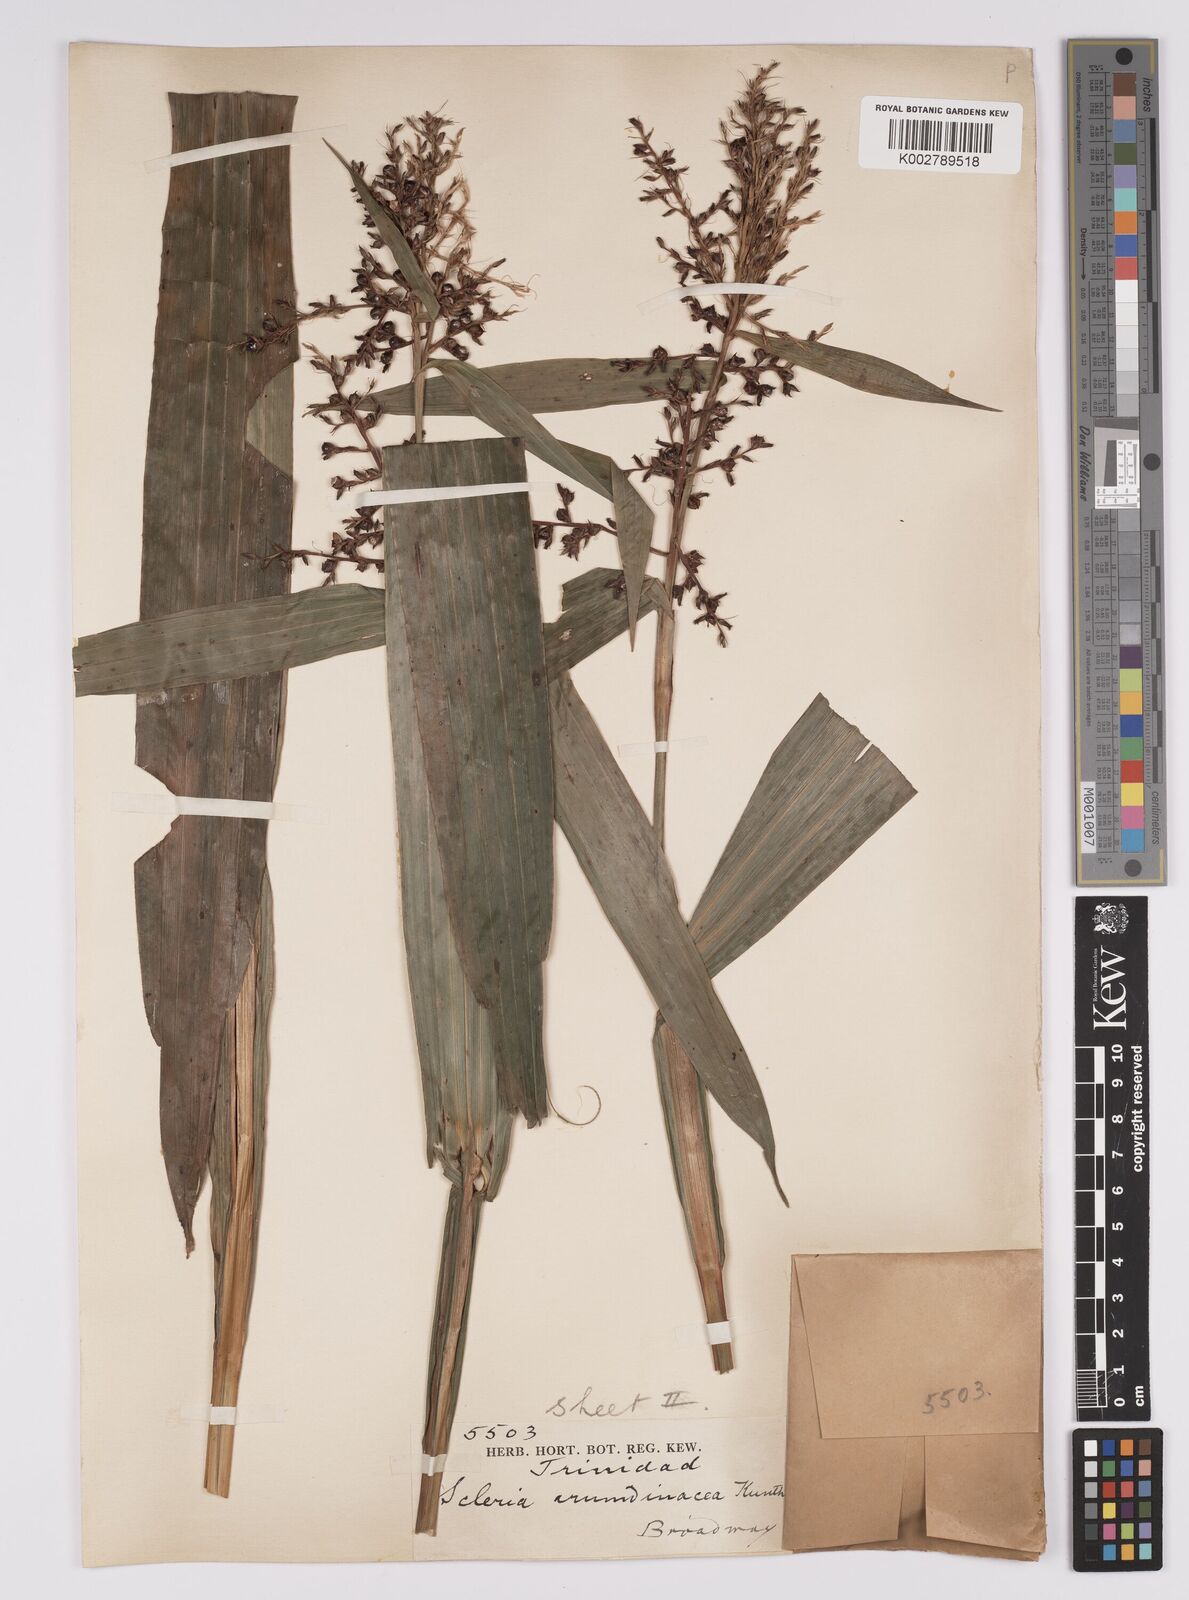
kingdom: Plantae
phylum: Tracheophyta
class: Liliopsida
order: Poales
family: Cyperaceae
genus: Scleria
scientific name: Scleria latifolia
